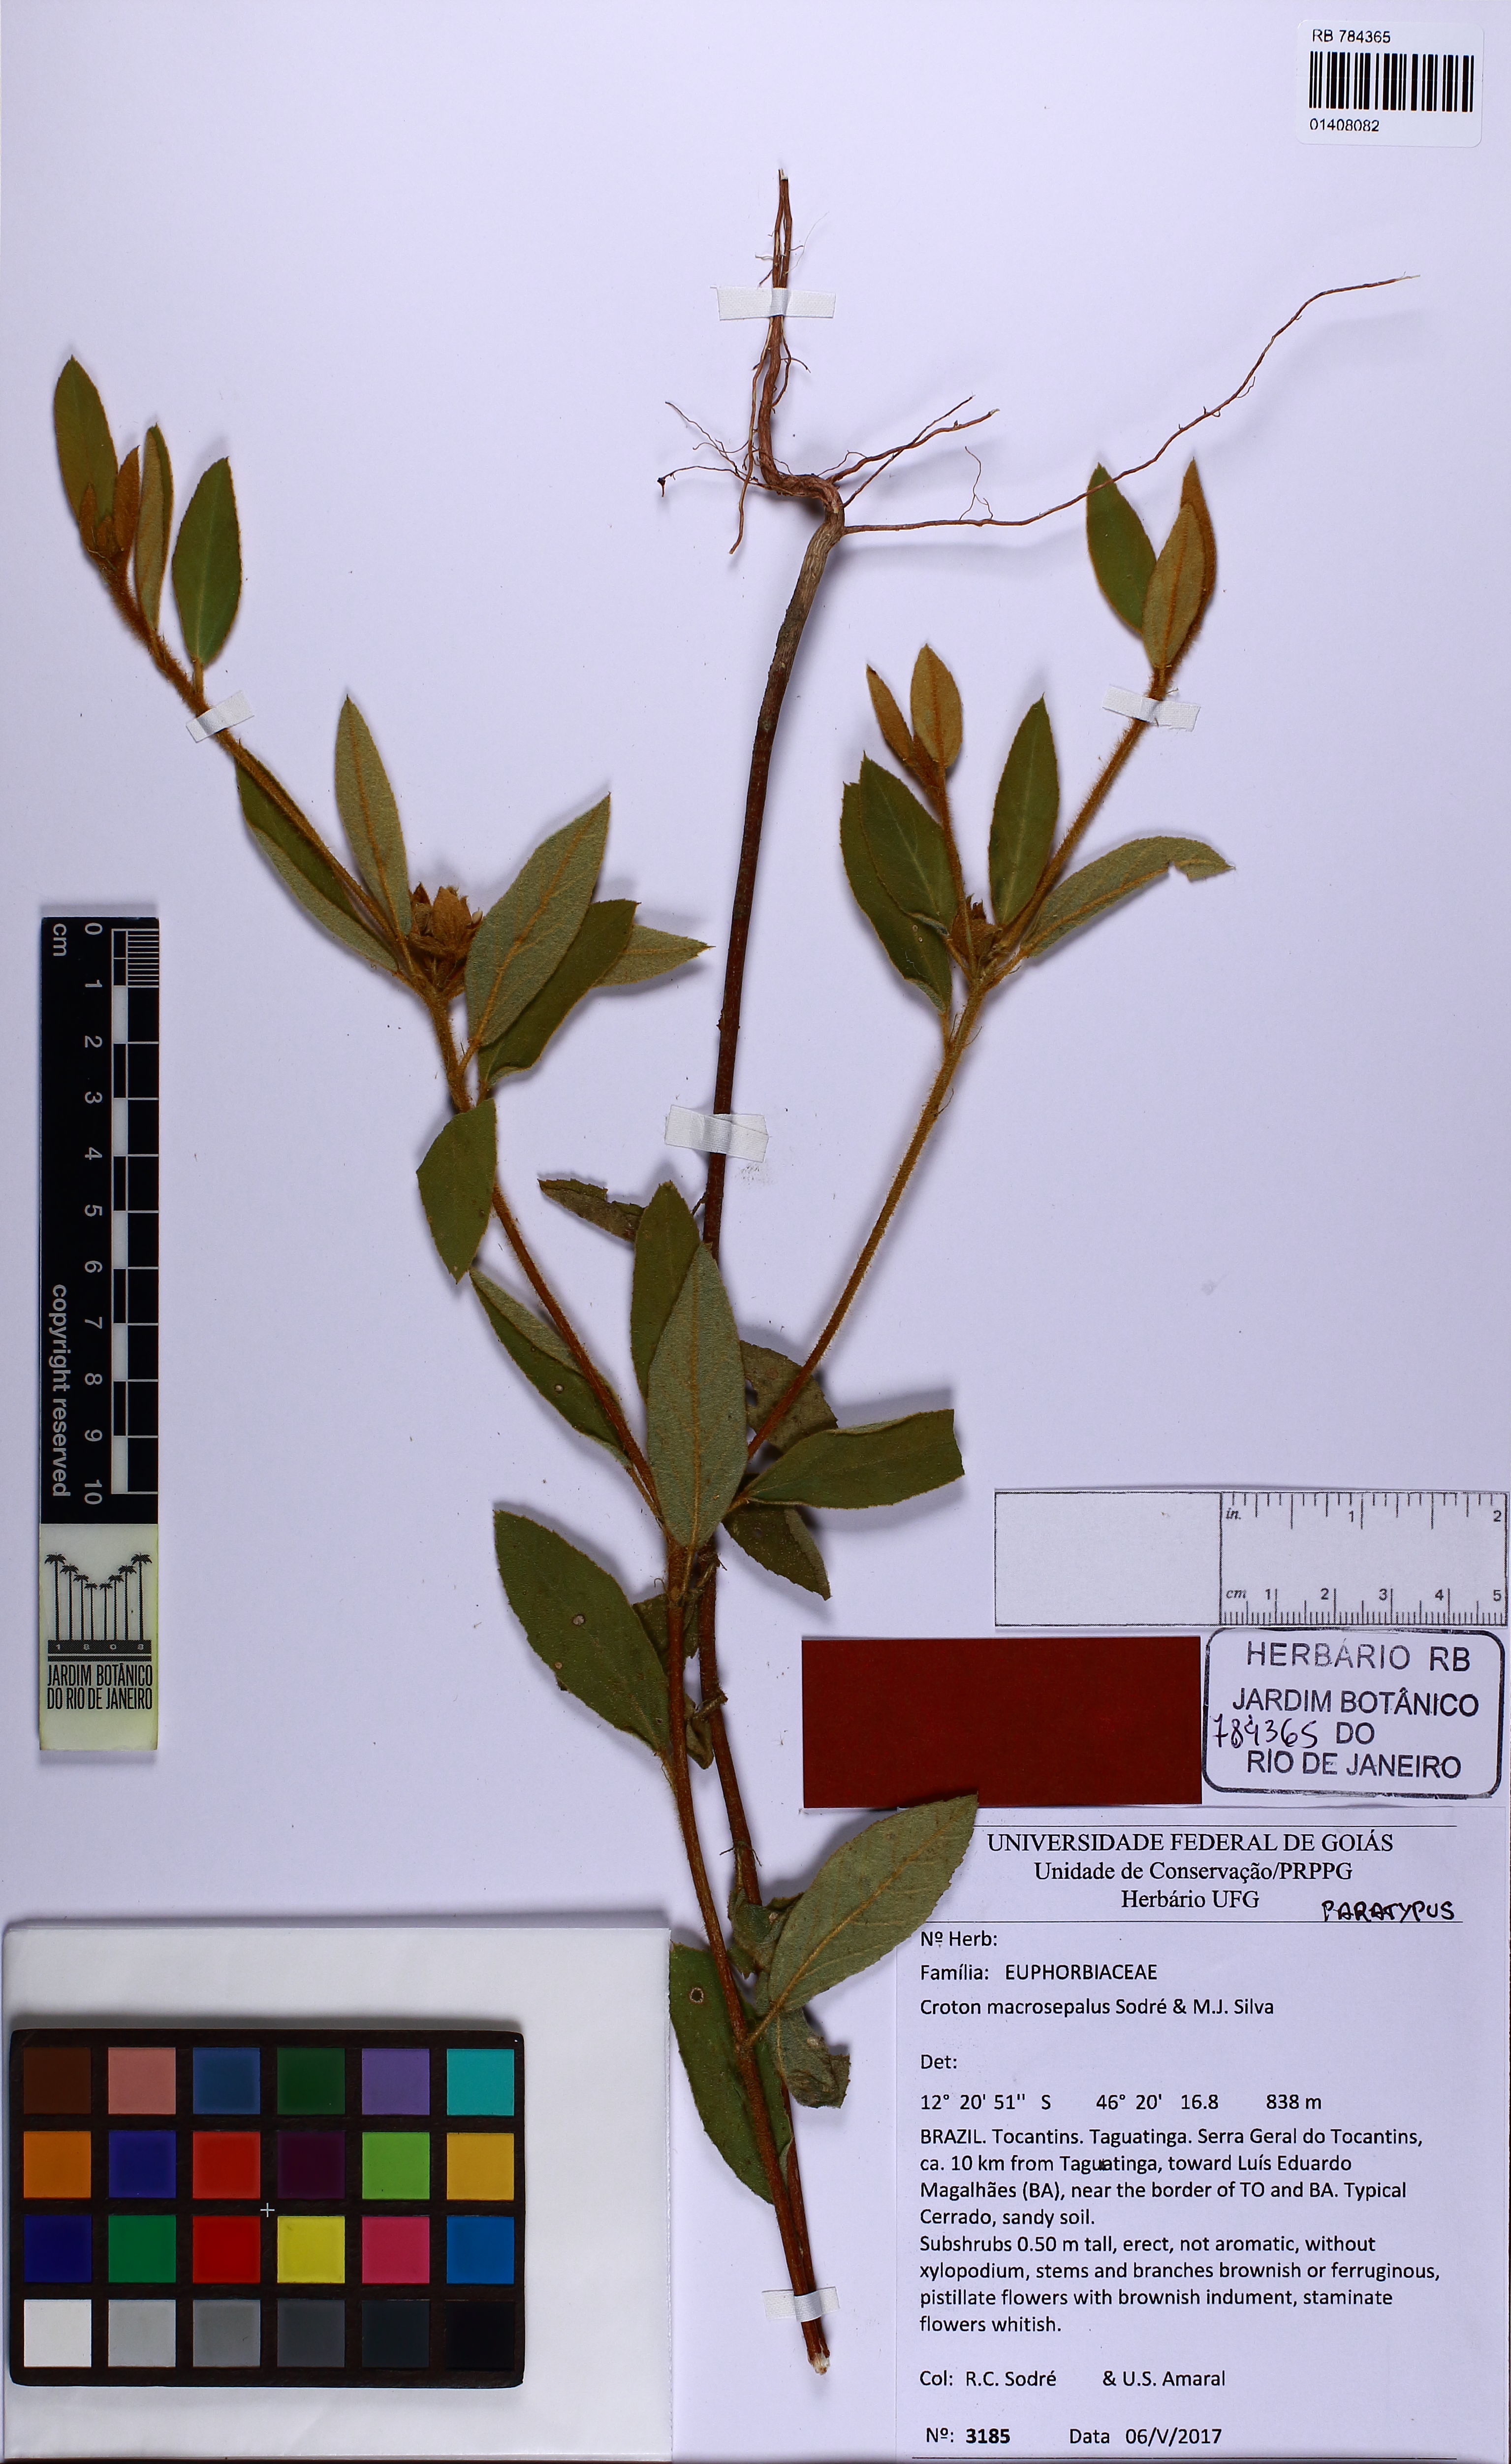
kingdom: Plantae
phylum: Tracheophyta
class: Magnoliopsida
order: Malpighiales
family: Euphorbiaceae
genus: Croton
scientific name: Croton macrosepalus
